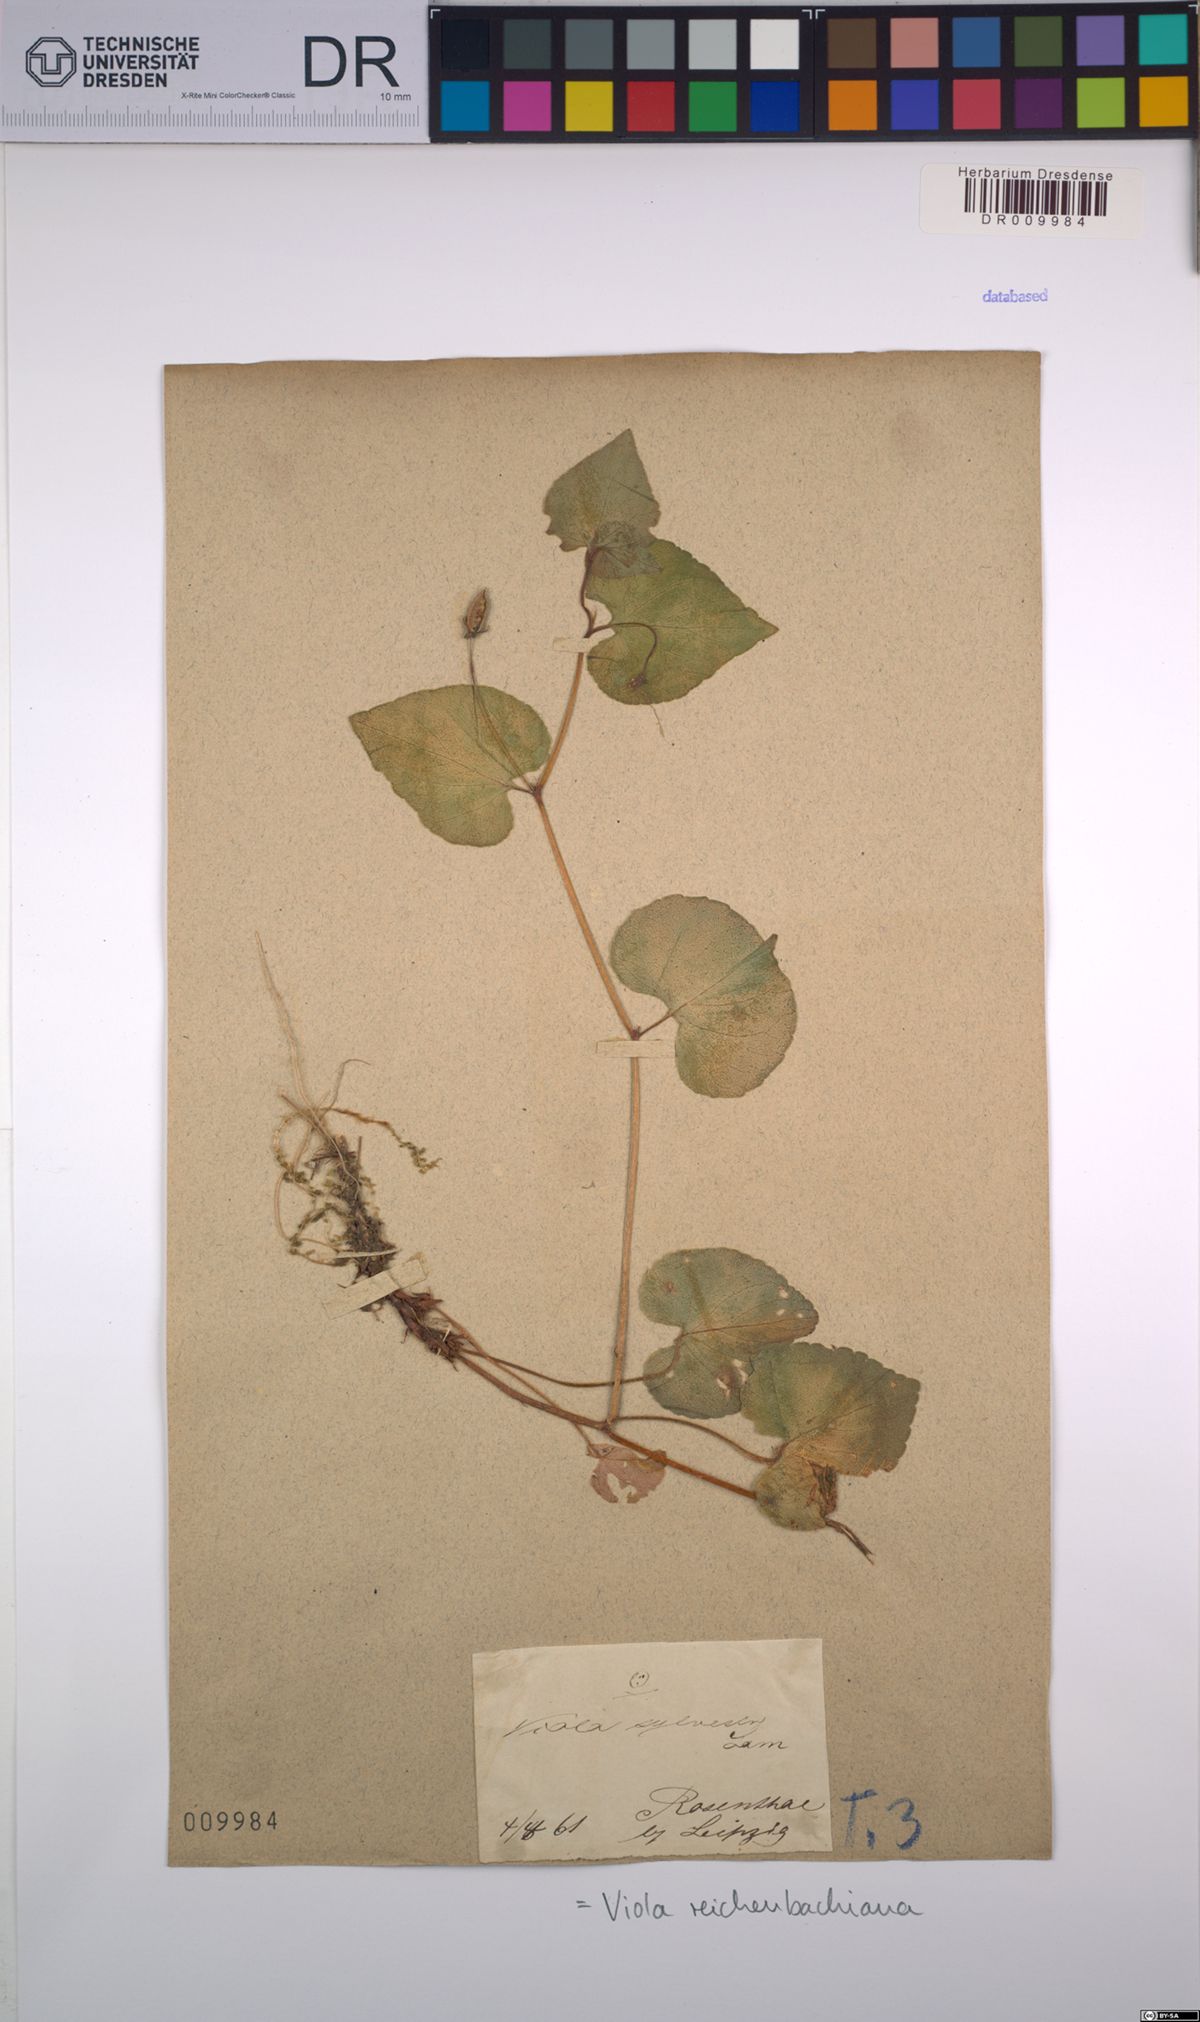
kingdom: Plantae
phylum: Tracheophyta
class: Magnoliopsida
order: Malpighiales
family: Violaceae
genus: Viola
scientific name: Viola reichenbachiana
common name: Early dog-violet
